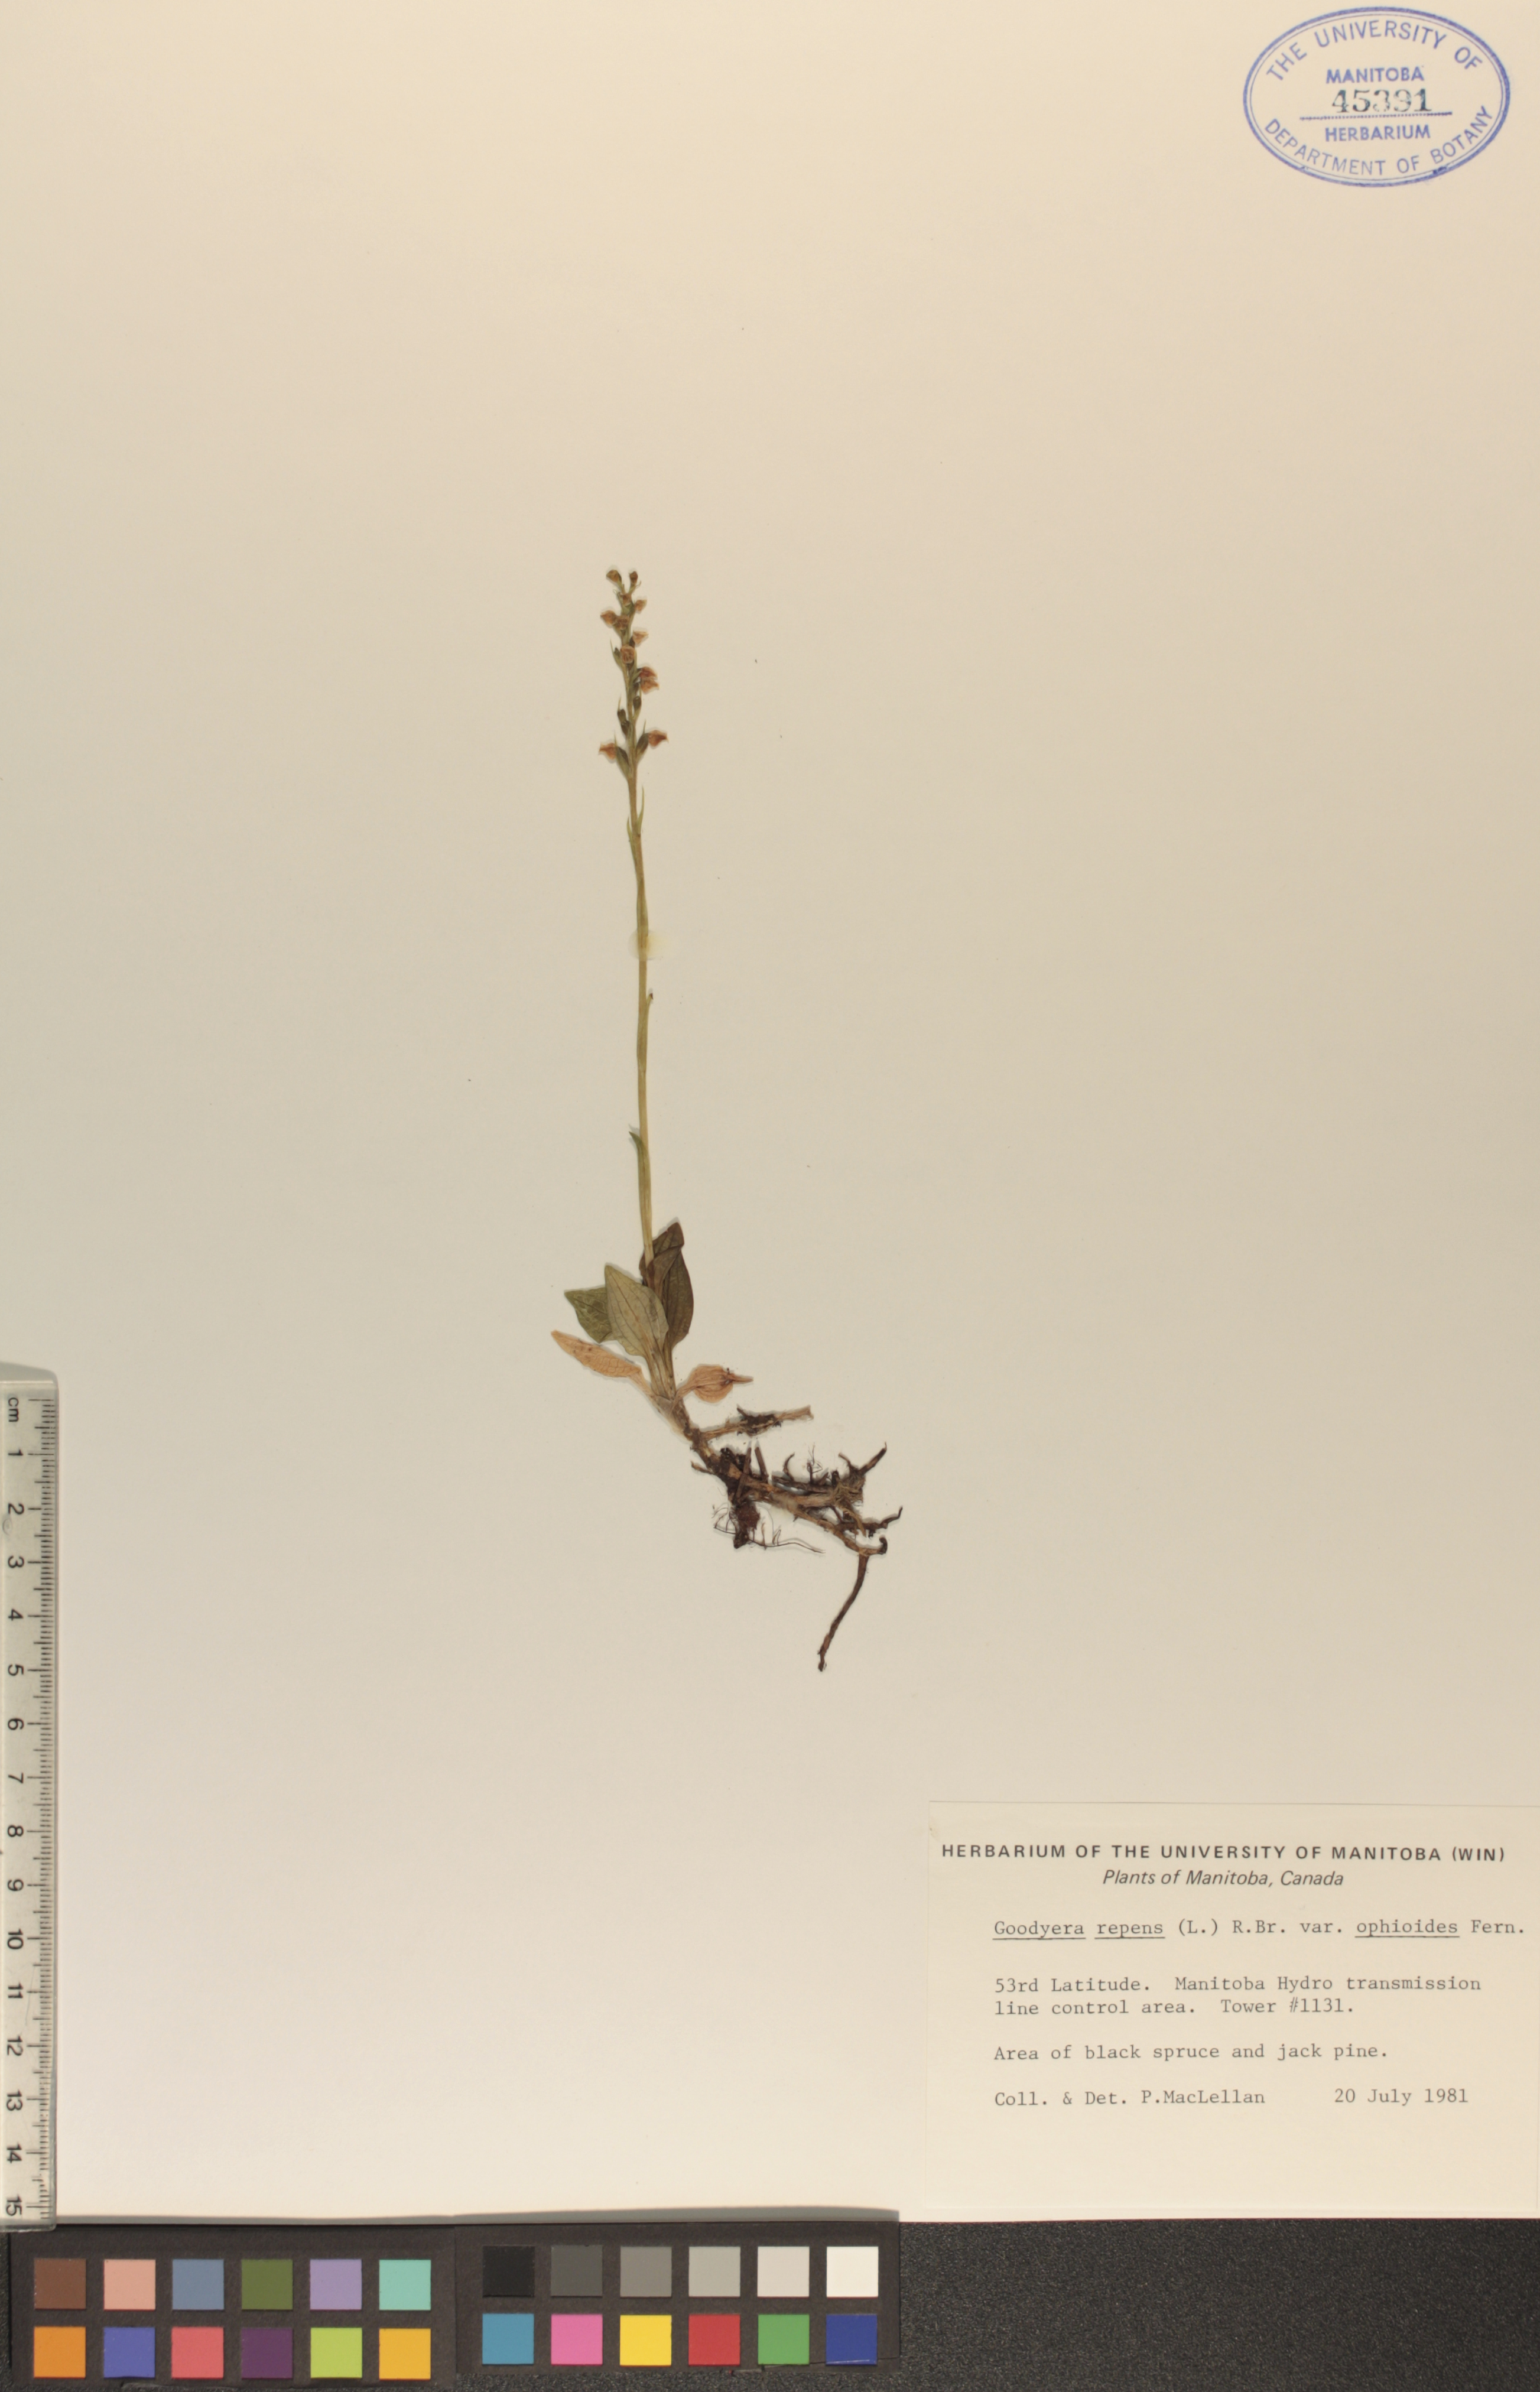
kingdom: Plantae
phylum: Tracheophyta
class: Liliopsida
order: Asparagales
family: Orchidaceae
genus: Goodyera
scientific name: Goodyera repens
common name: Creeping lady's-tresses
